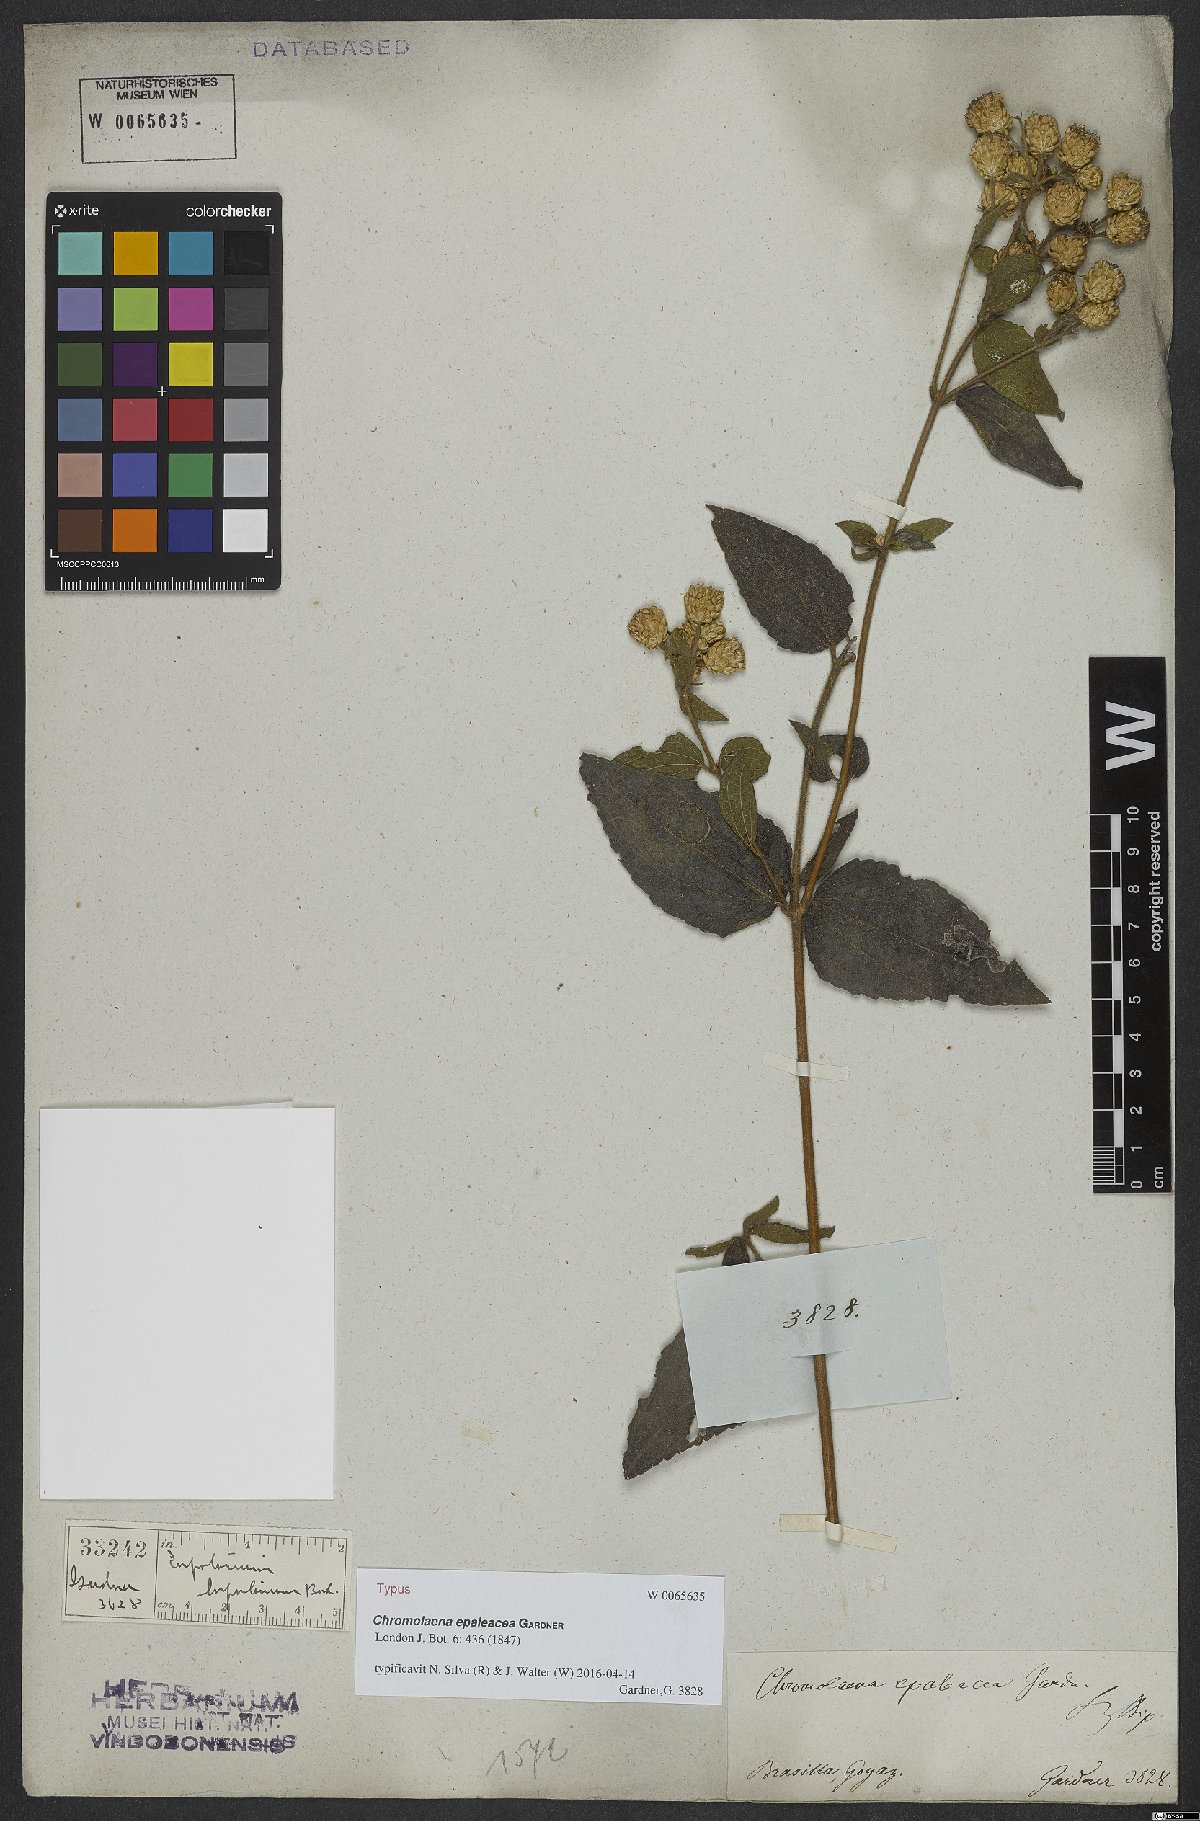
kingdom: Plantae
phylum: Tracheophyta
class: Magnoliopsida
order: Asterales
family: Asteraceae
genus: Chromolaena
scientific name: Chromolaena epaleacea
